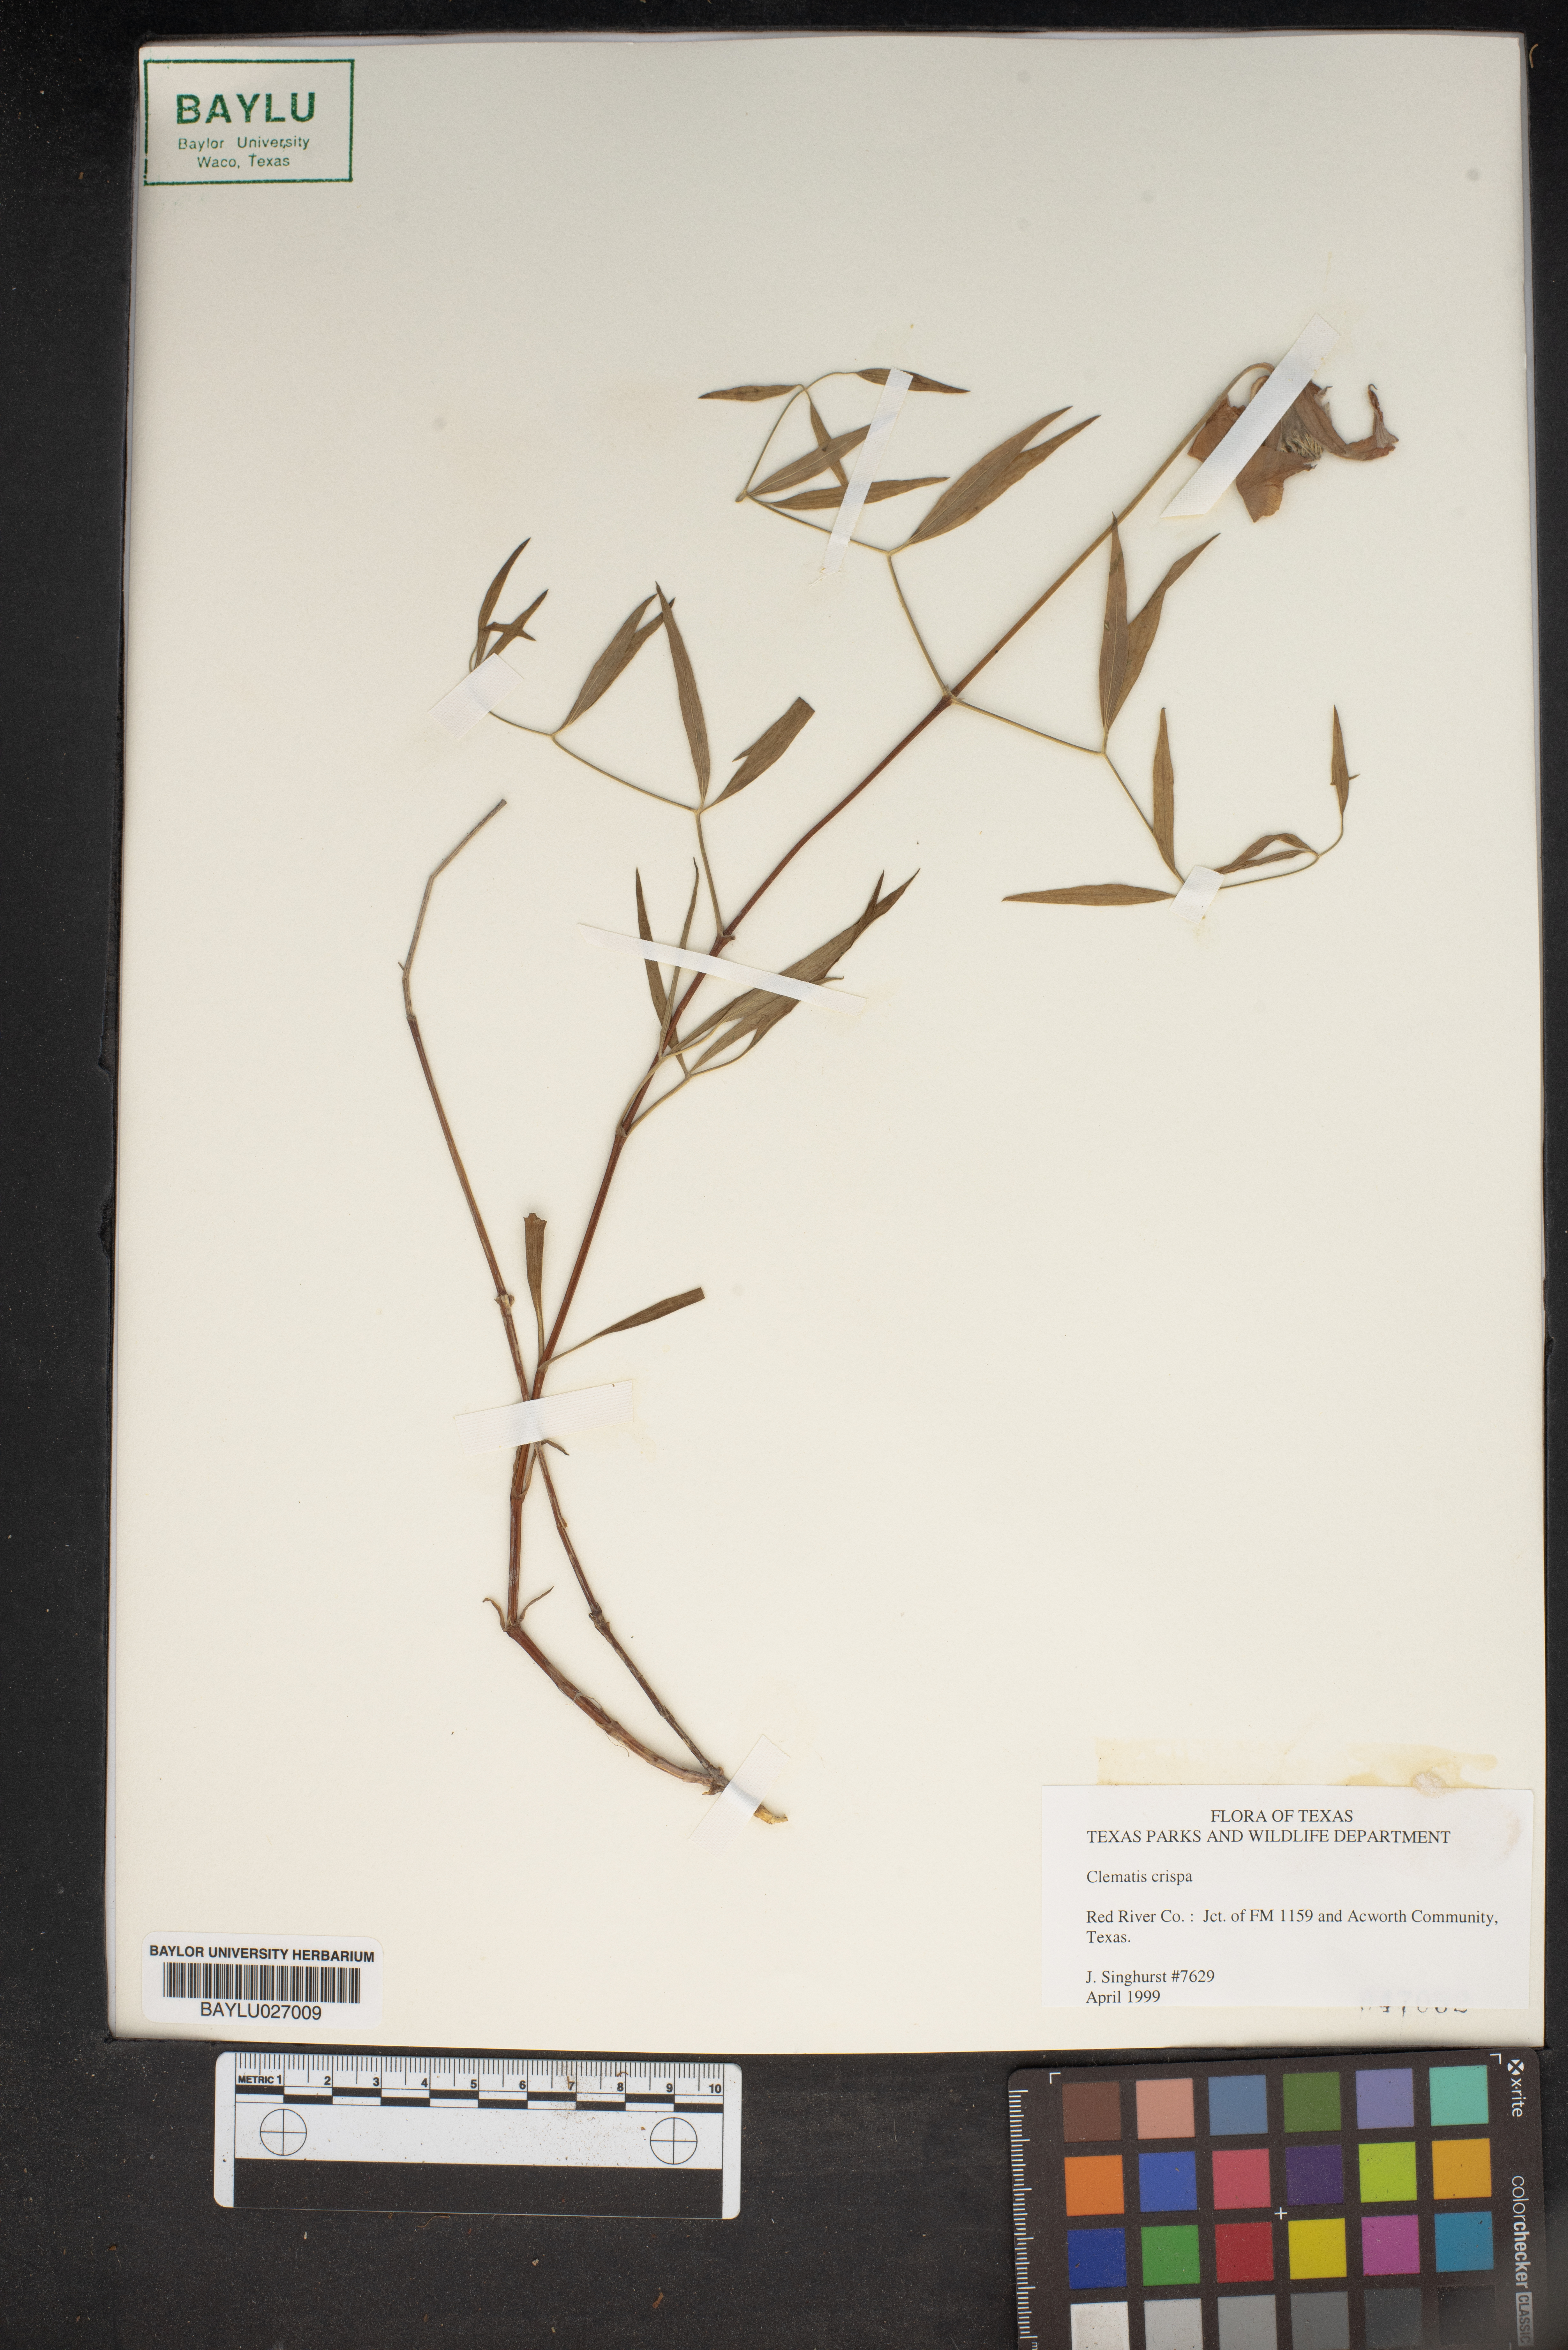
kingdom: Plantae
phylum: Tracheophyta
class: Magnoliopsida
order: Ranunculales
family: Ranunculaceae
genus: Clematis
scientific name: Clematis crispa
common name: Curly clematis
